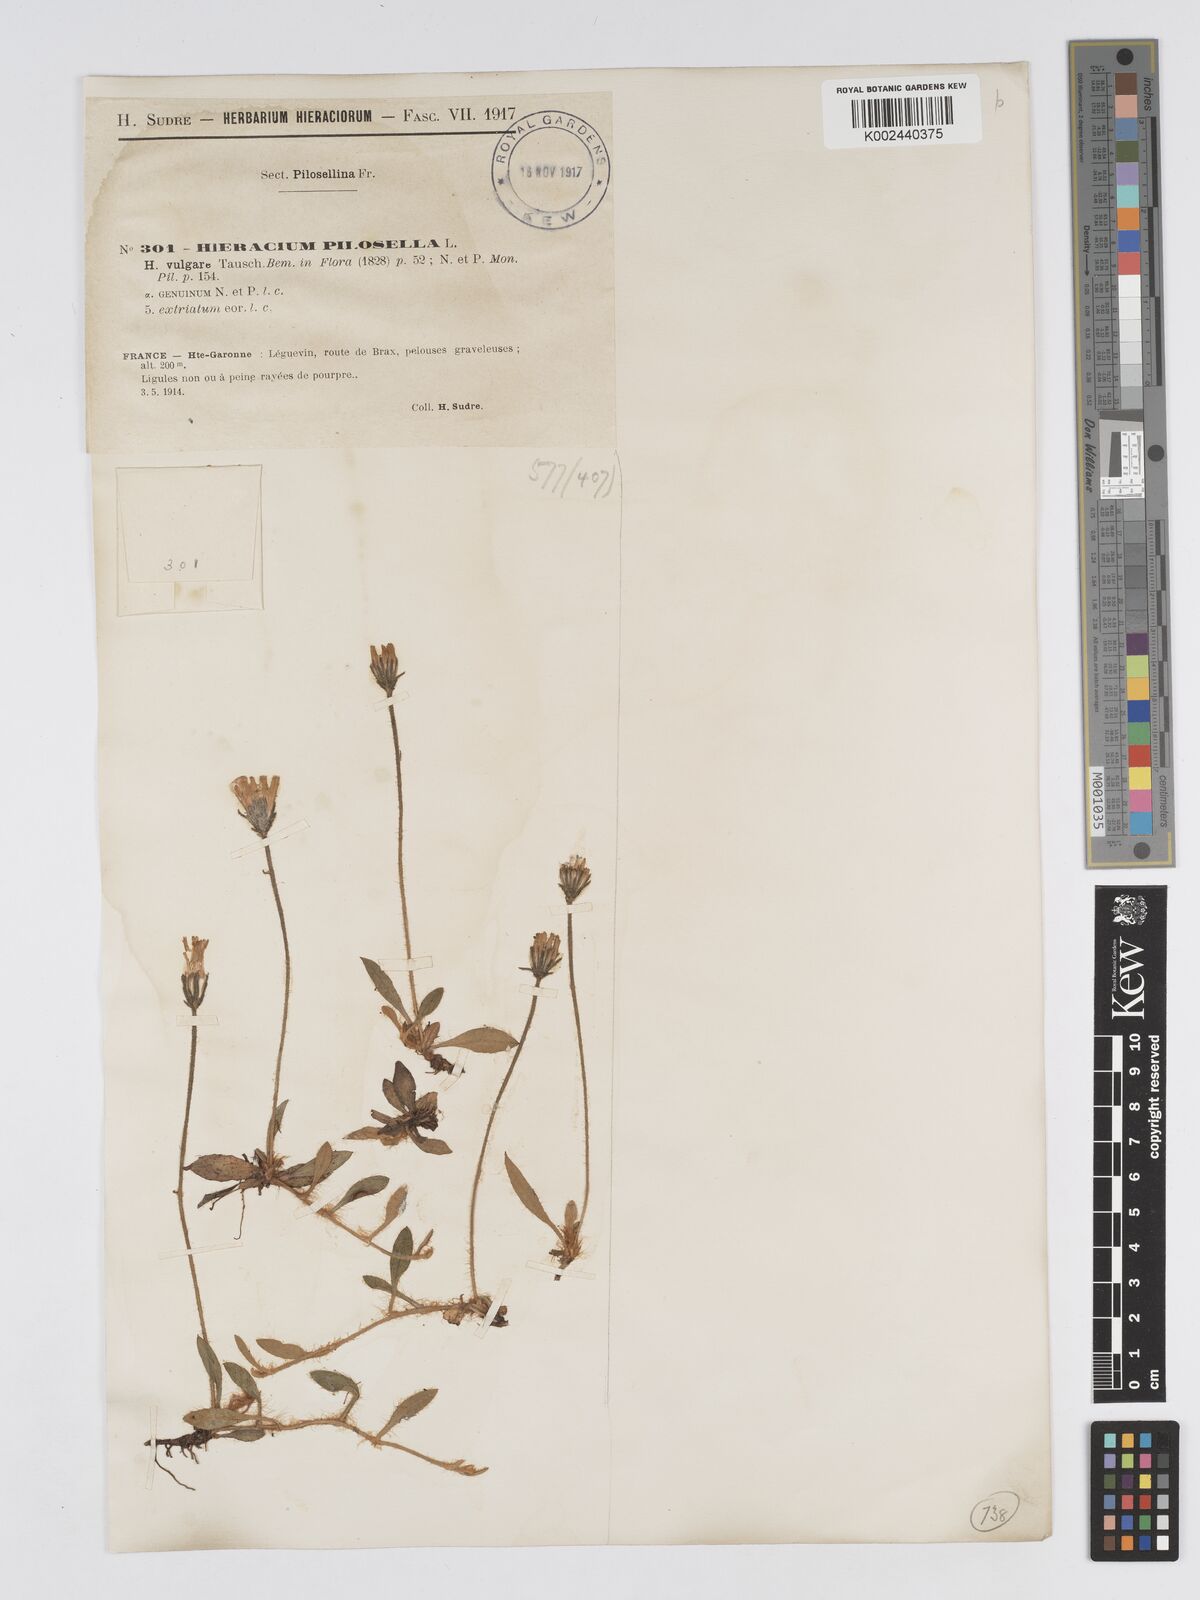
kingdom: Plantae
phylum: Tracheophyta
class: Magnoliopsida
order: Asterales
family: Asteraceae
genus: Pilosella
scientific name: Pilosella officinarum
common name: Mouse-ear hawkweed
